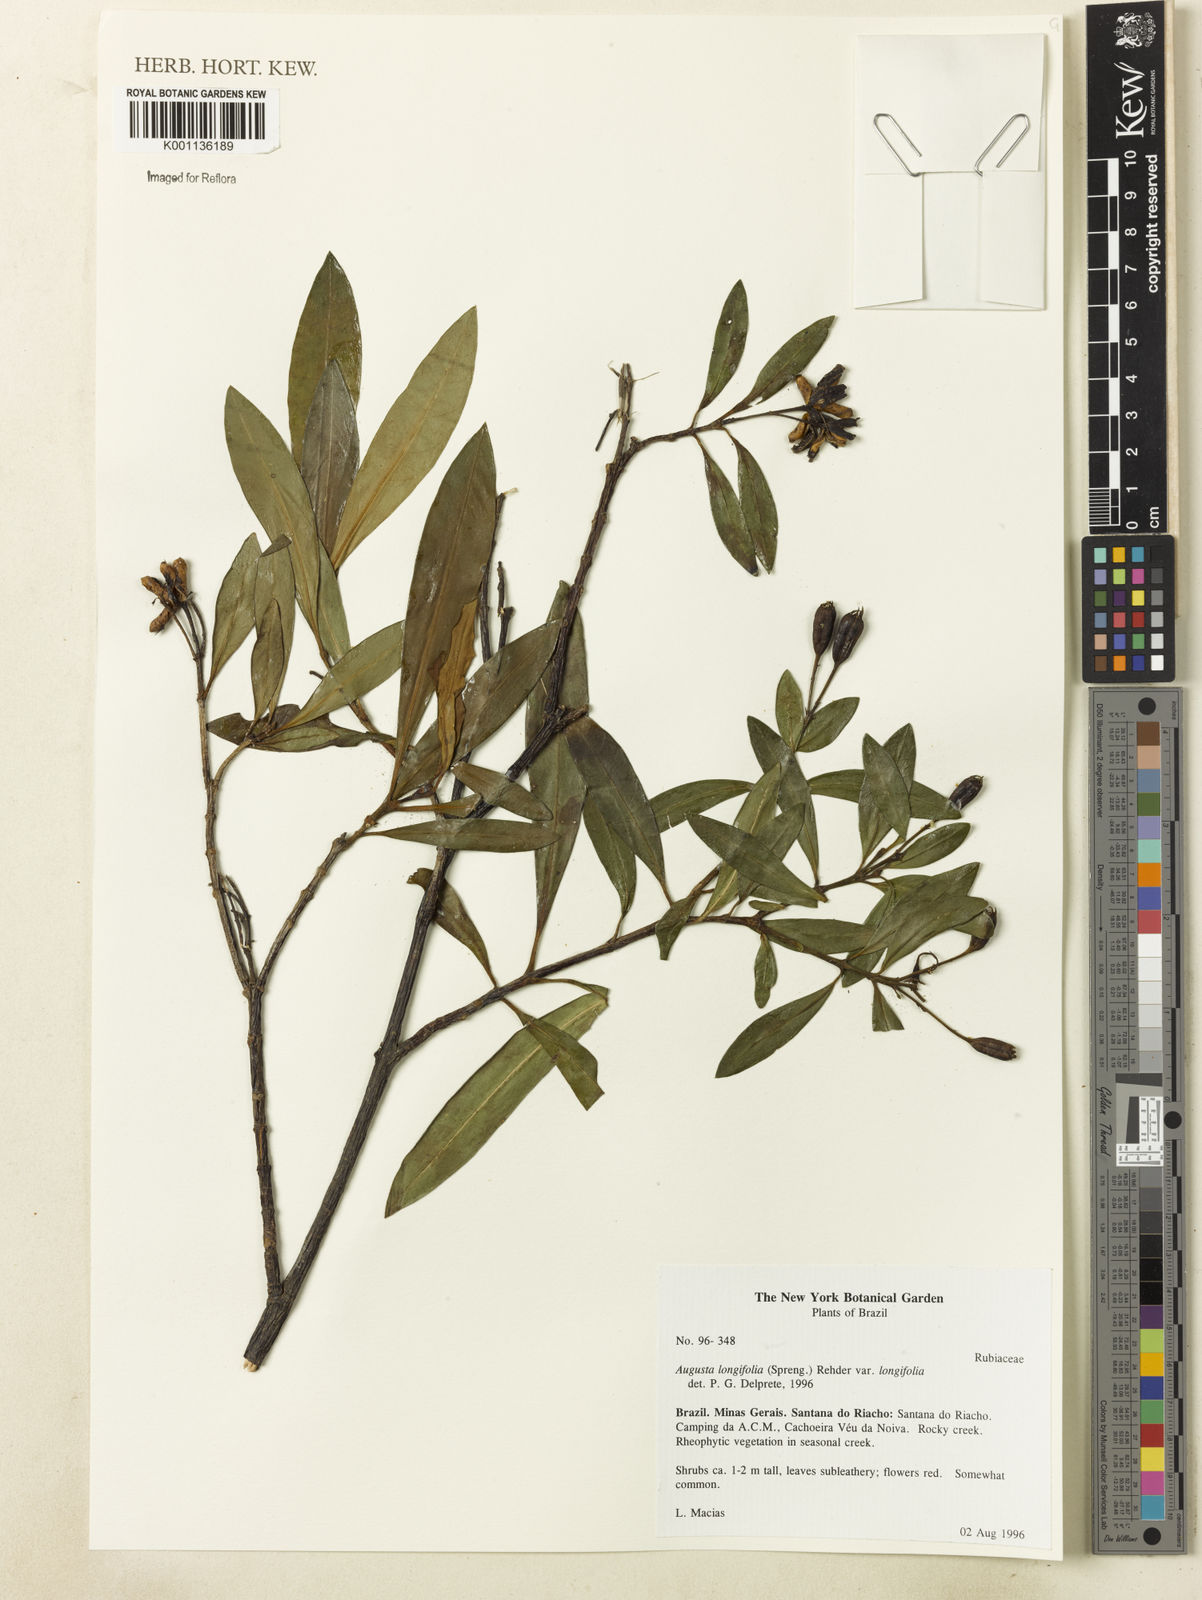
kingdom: Plantae
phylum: Tracheophyta
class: Magnoliopsida
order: Gentianales
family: Rubiaceae
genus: Augusta
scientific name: Augusta longifolia
